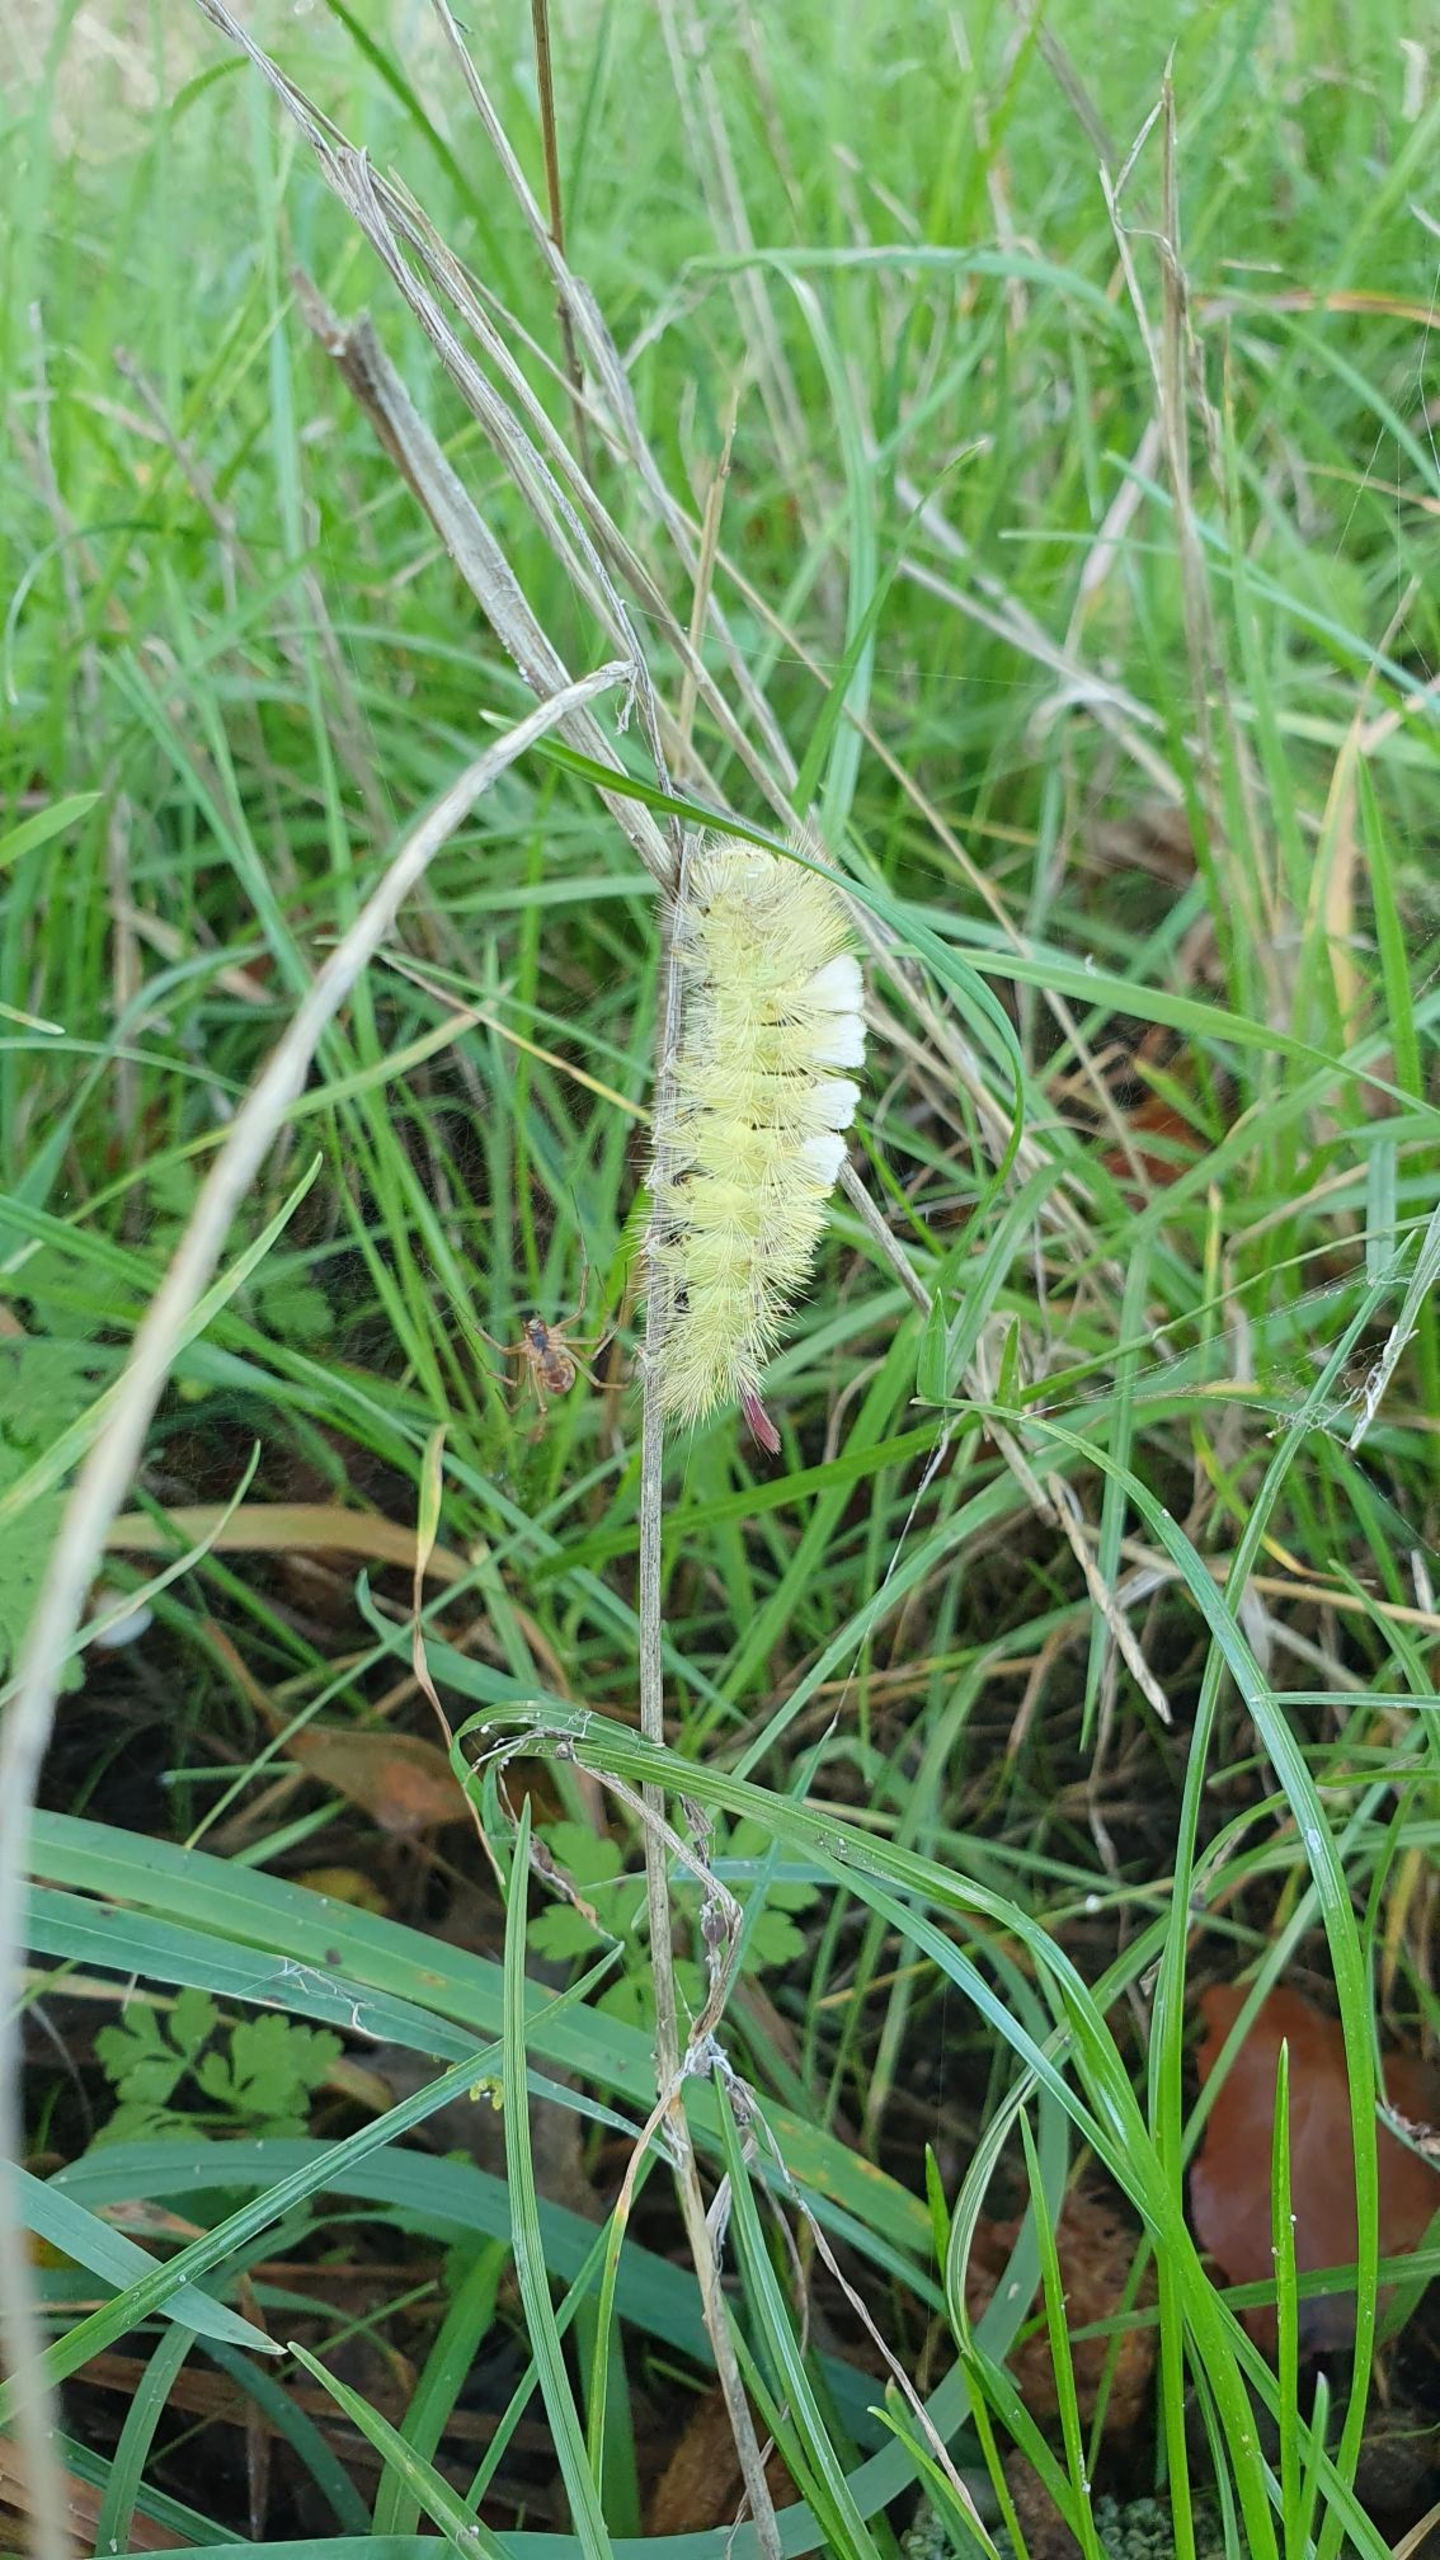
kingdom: Animalia
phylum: Arthropoda
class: Insecta
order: Lepidoptera
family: Erebidae
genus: Calliteara
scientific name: Calliteara pudibunda
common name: Bøgenonne
